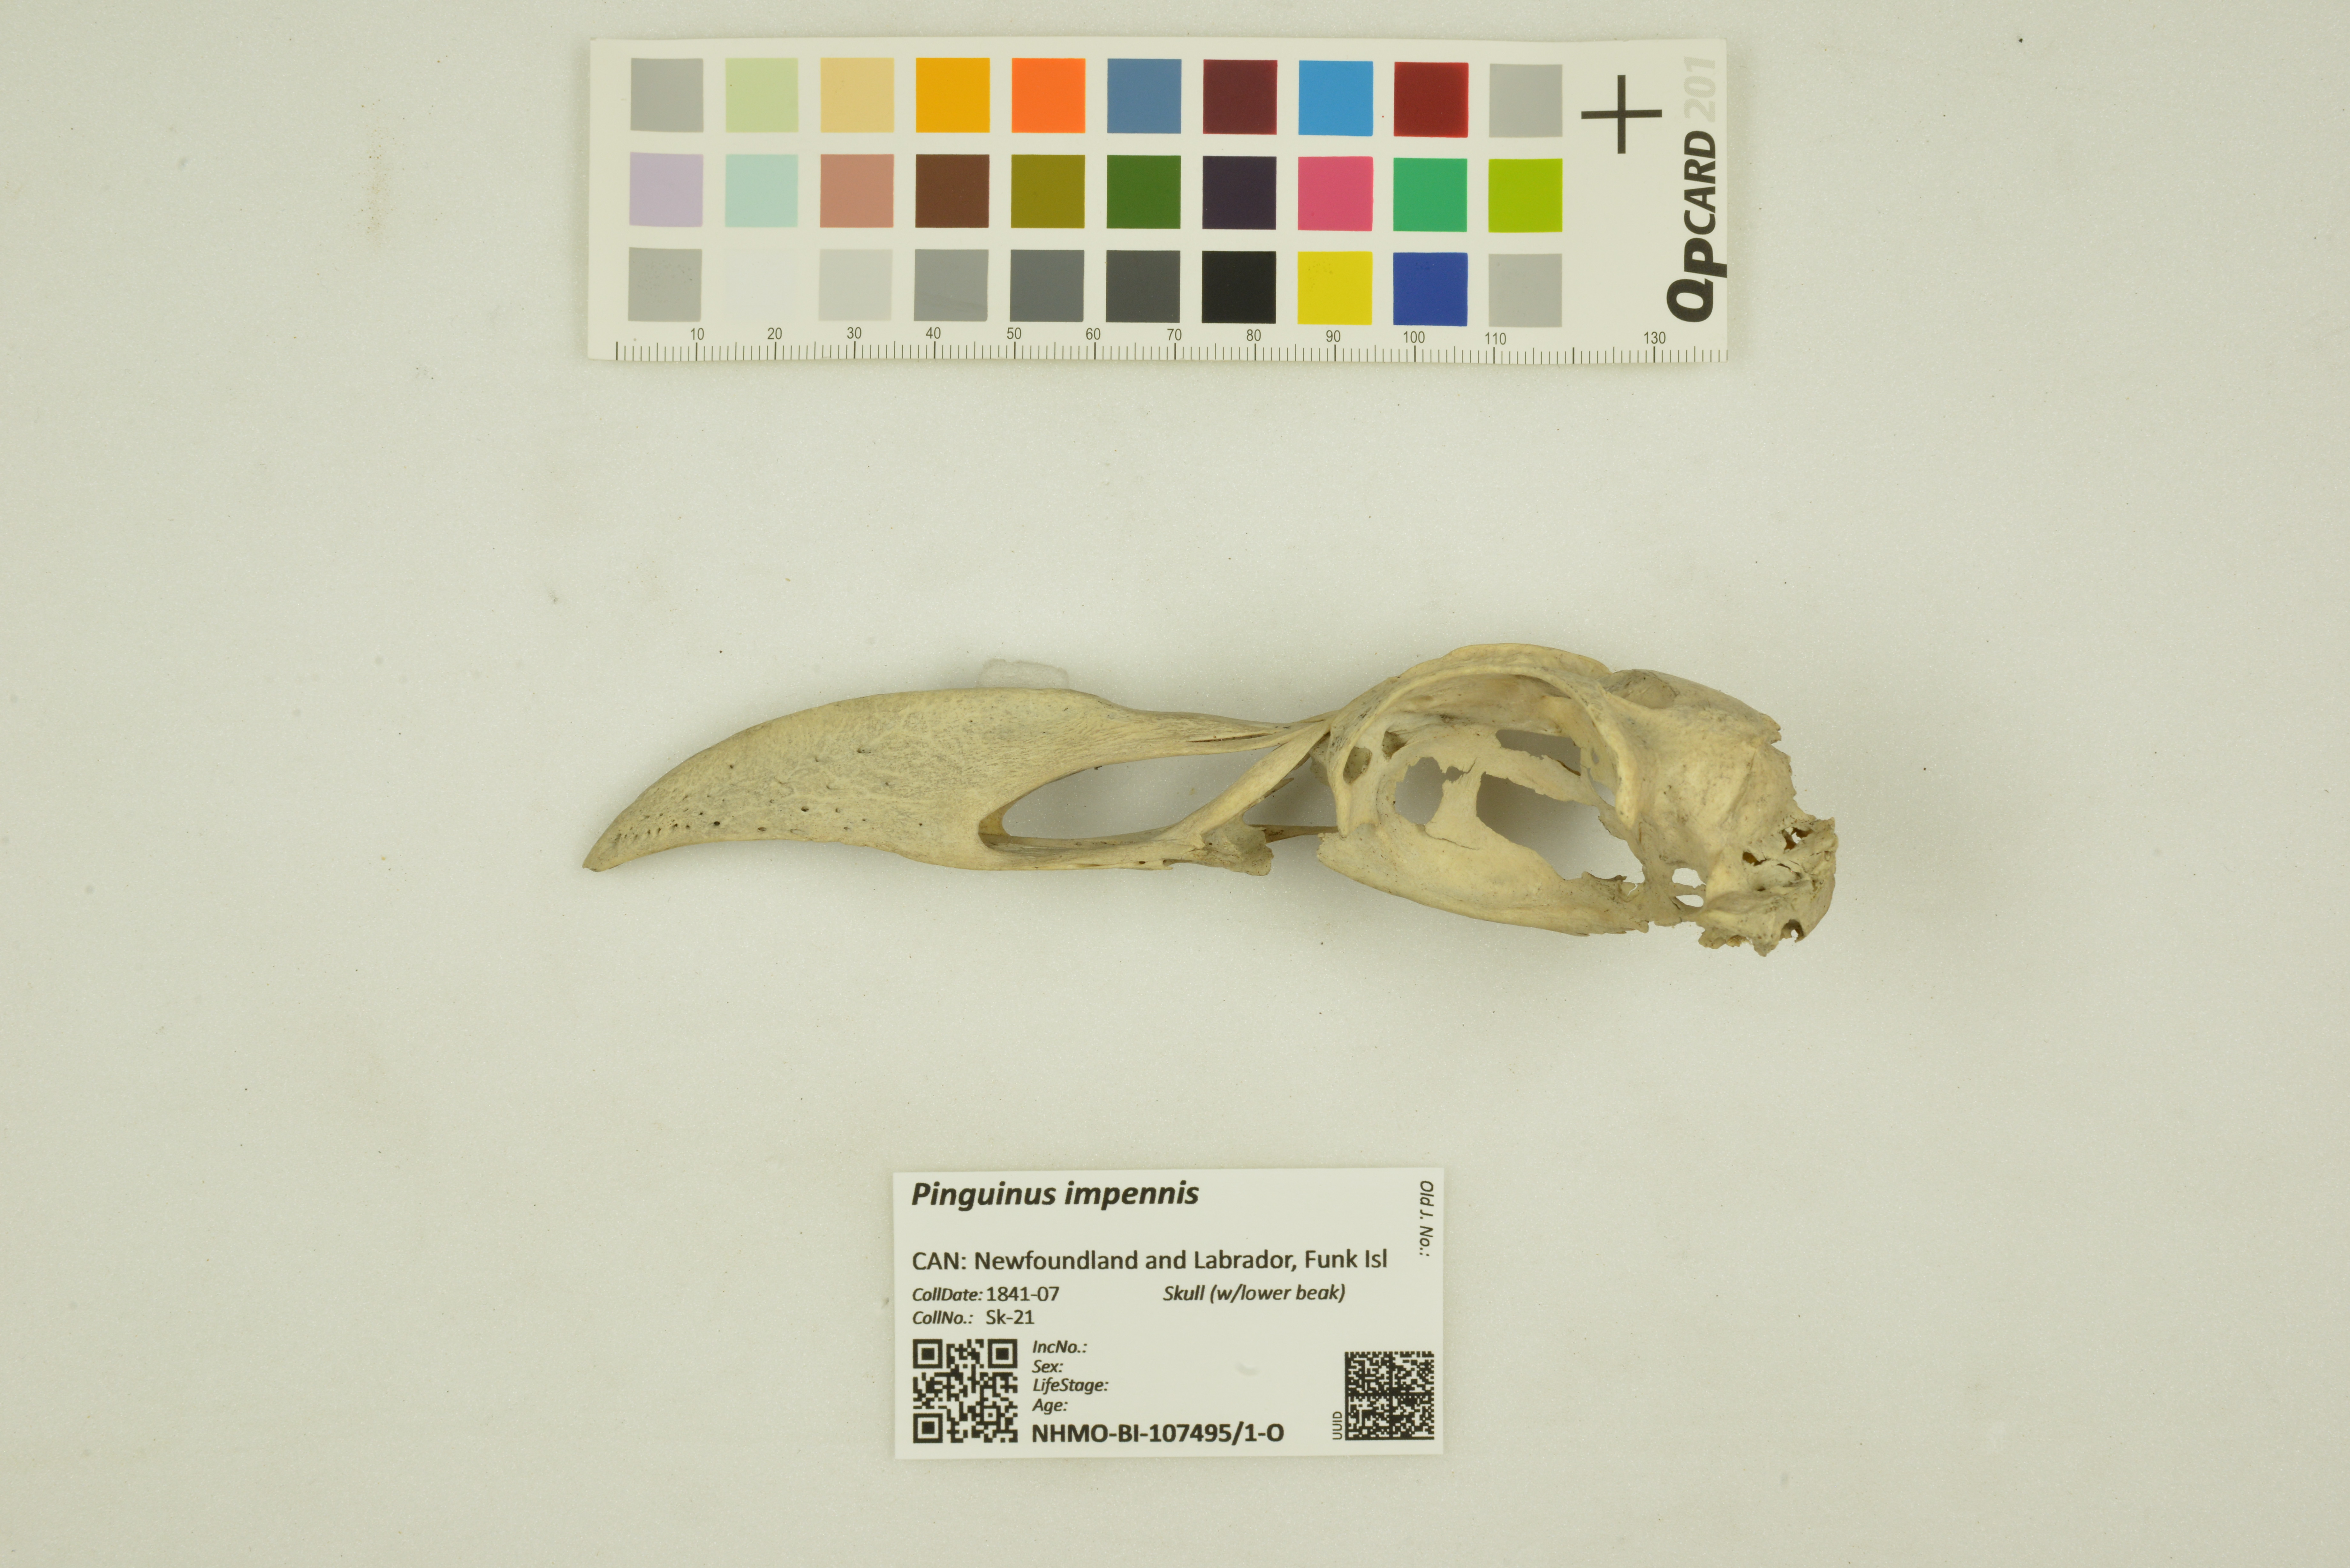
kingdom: Animalia
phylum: Chordata
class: Aves
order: Charadriiformes
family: Alcidae
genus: Pinguinus
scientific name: Pinguinus impennis
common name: Great auk
